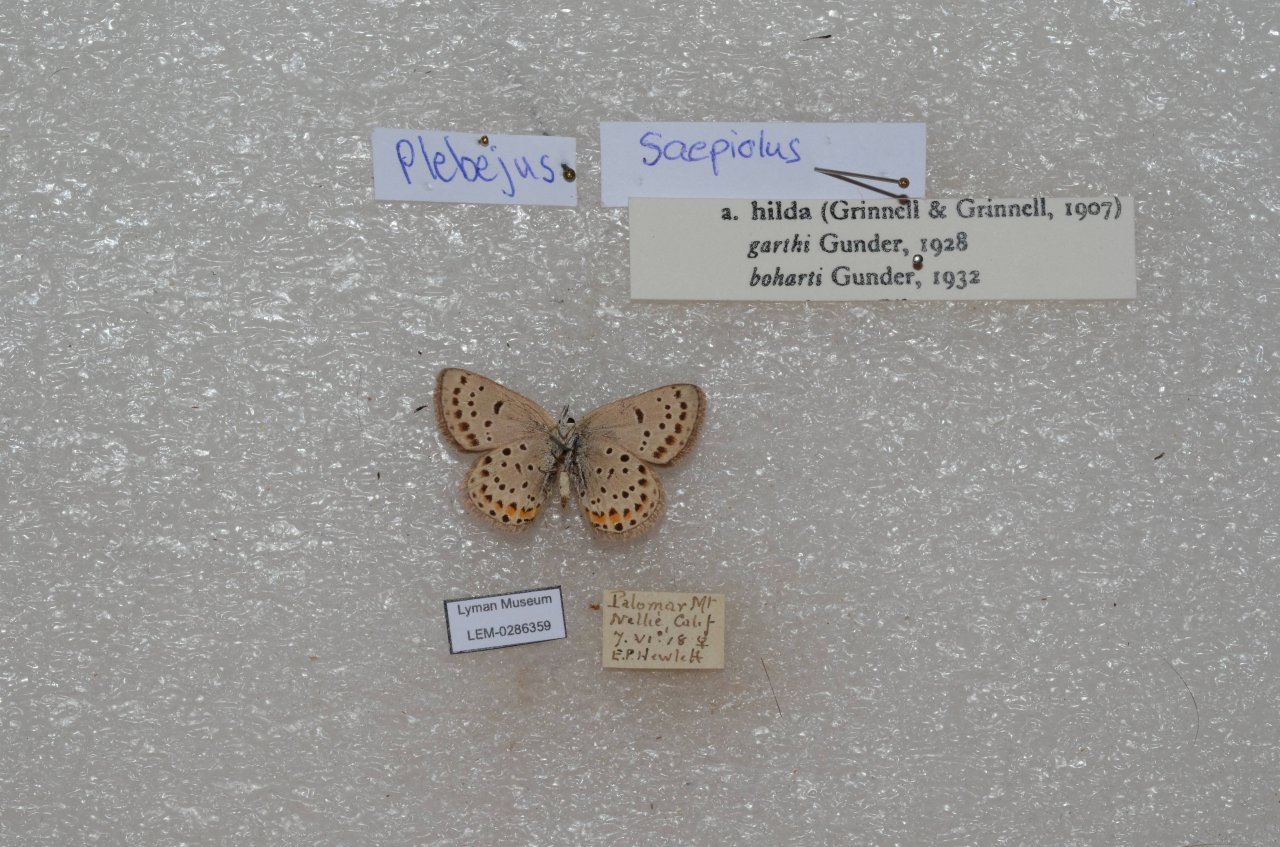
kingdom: Animalia
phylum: Arthropoda
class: Insecta
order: Lepidoptera
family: Lycaenidae
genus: Plebejus
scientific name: Plebejus saepiolus
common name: Greenish Blue
